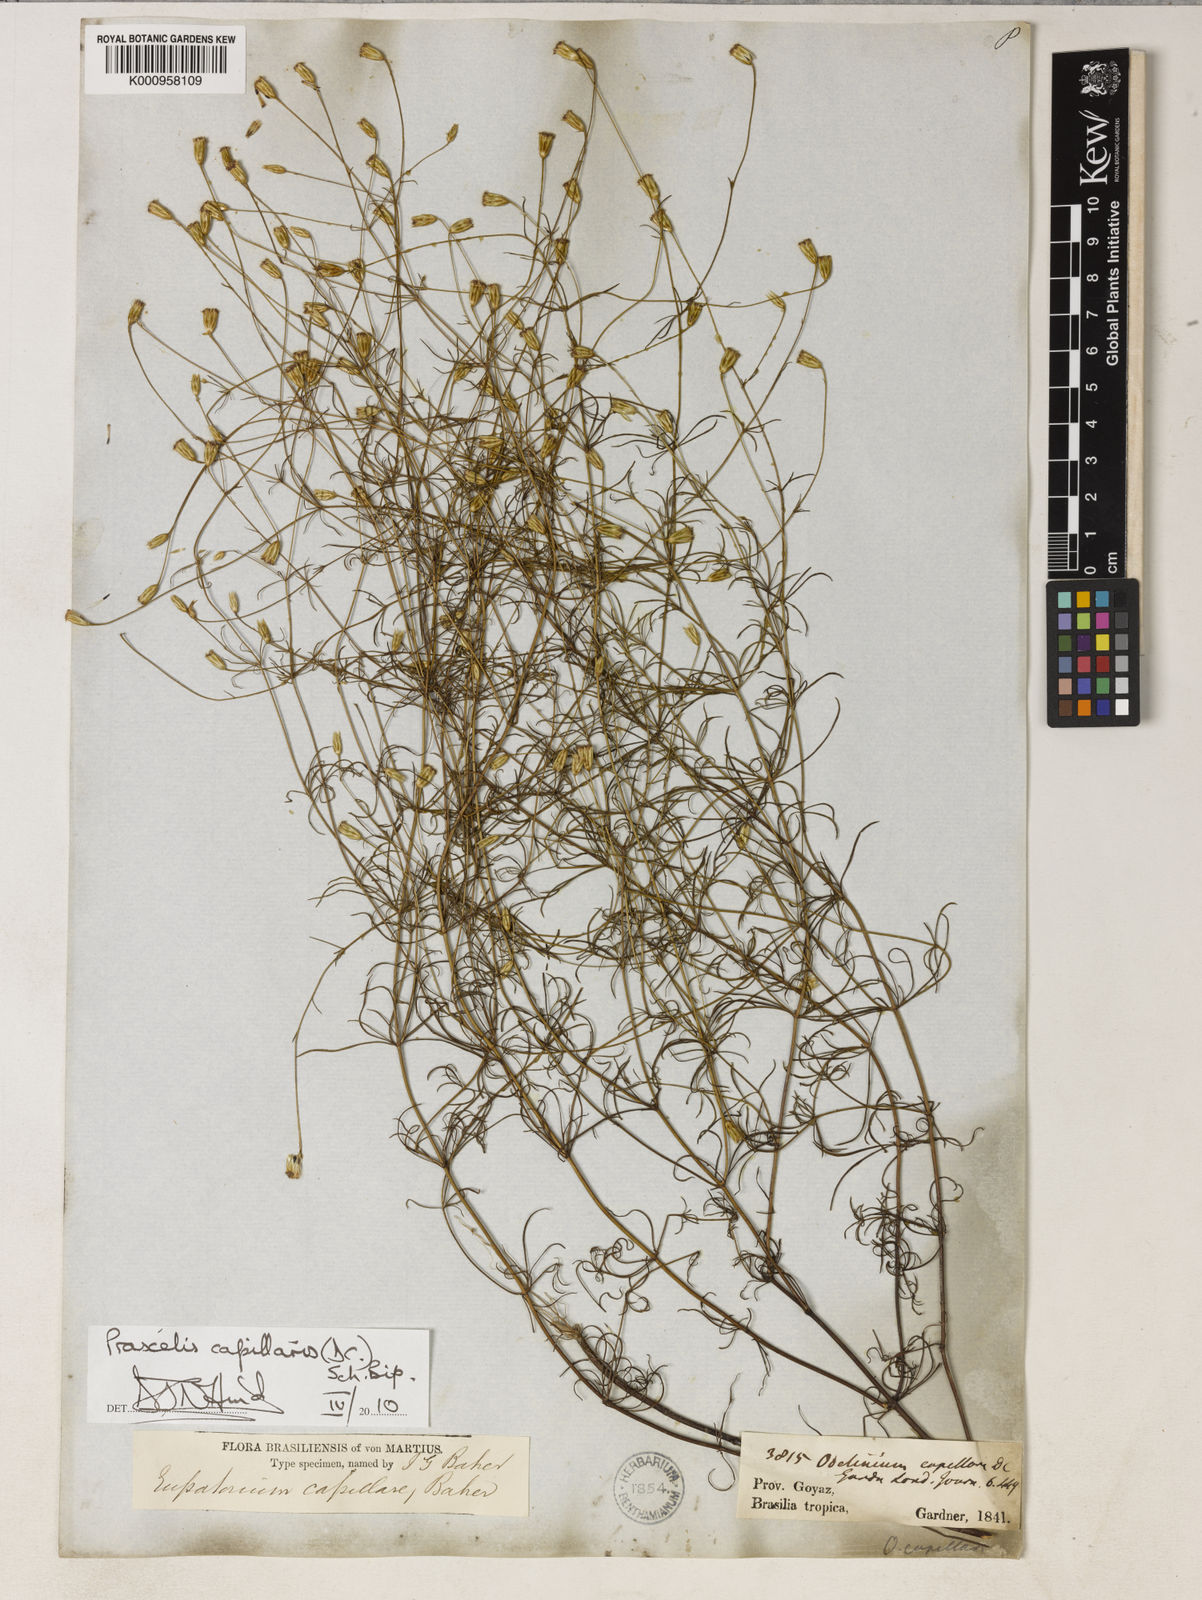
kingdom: Plantae
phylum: Tracheophyta
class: Magnoliopsida
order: Asterales
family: Asteraceae
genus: Praxelis
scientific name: Praxelis capillaris
